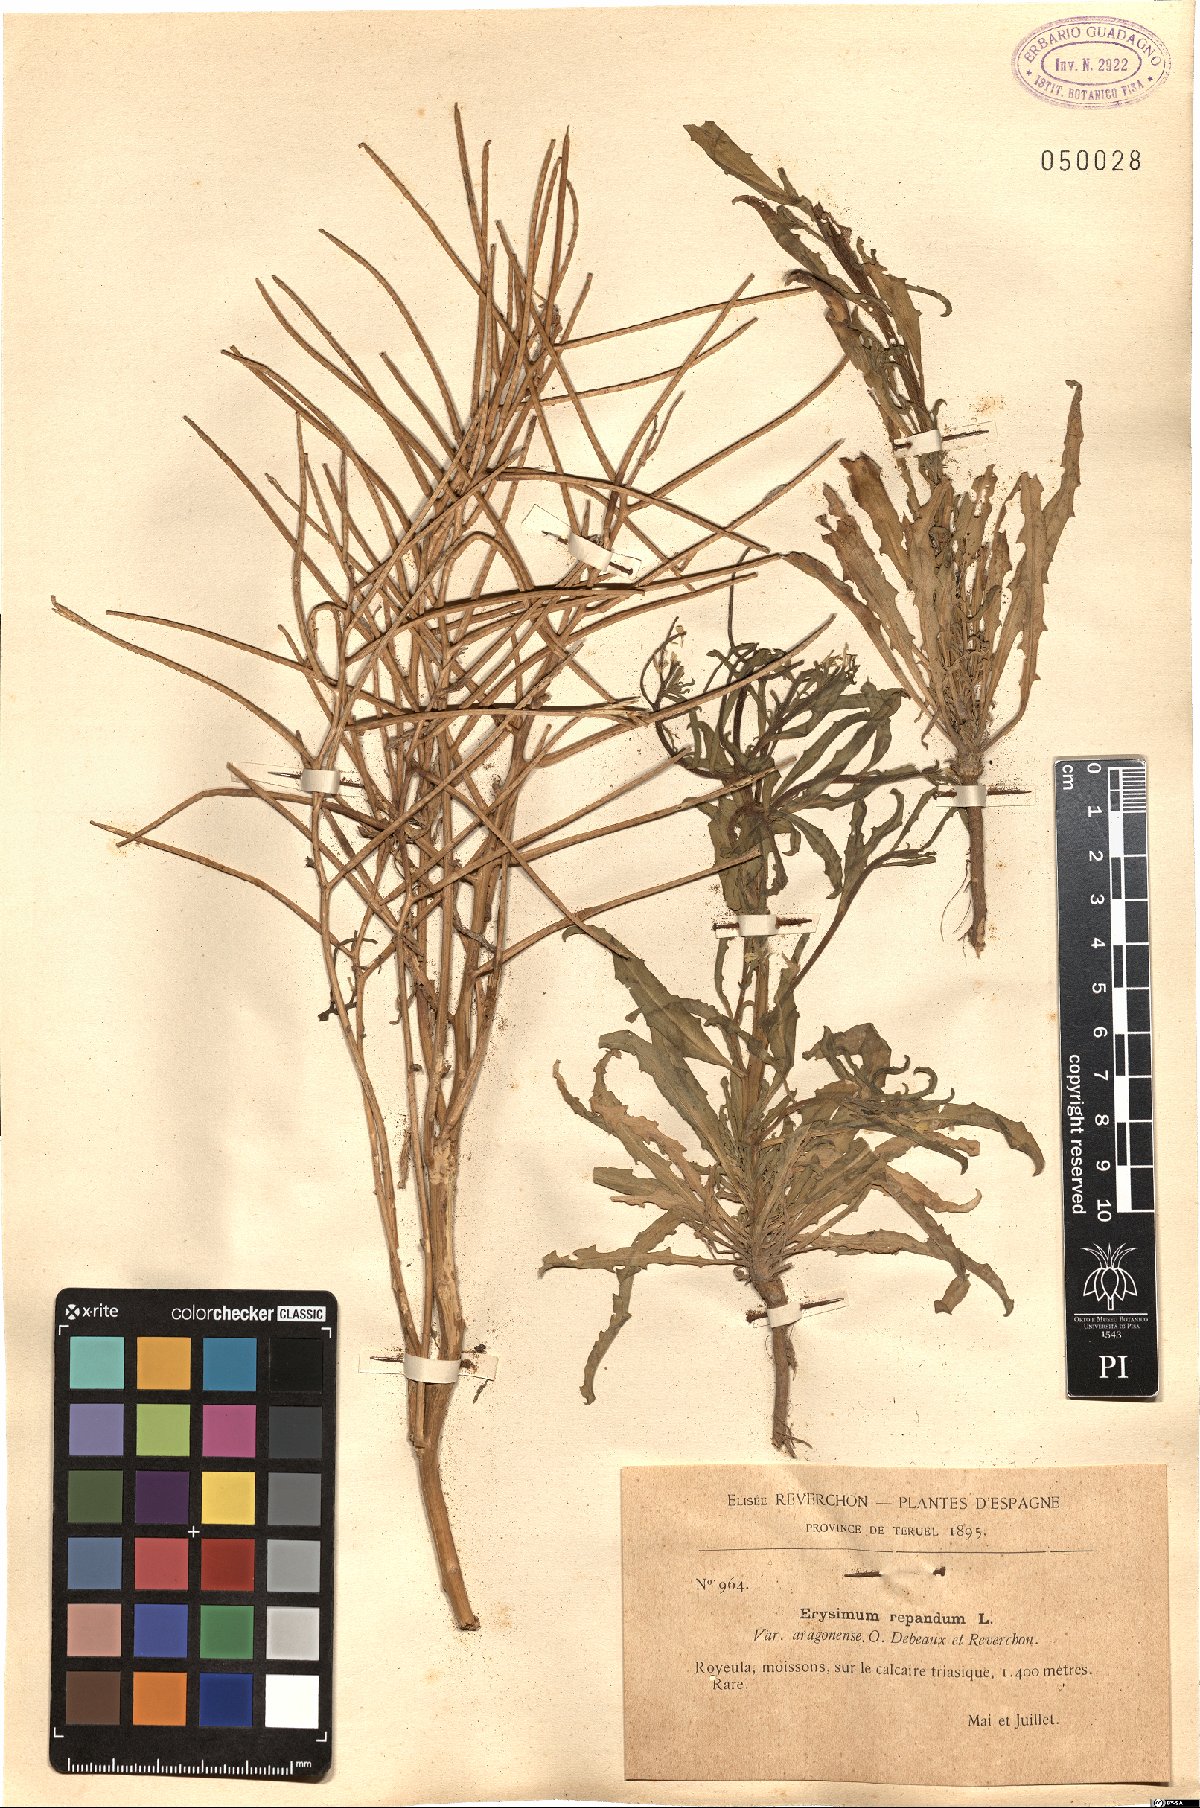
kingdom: Plantae
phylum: Tracheophyta
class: Magnoliopsida
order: Brassicales
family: Brassicaceae
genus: Erysimum
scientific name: Erysimum repandum
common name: Spreading wallflower
